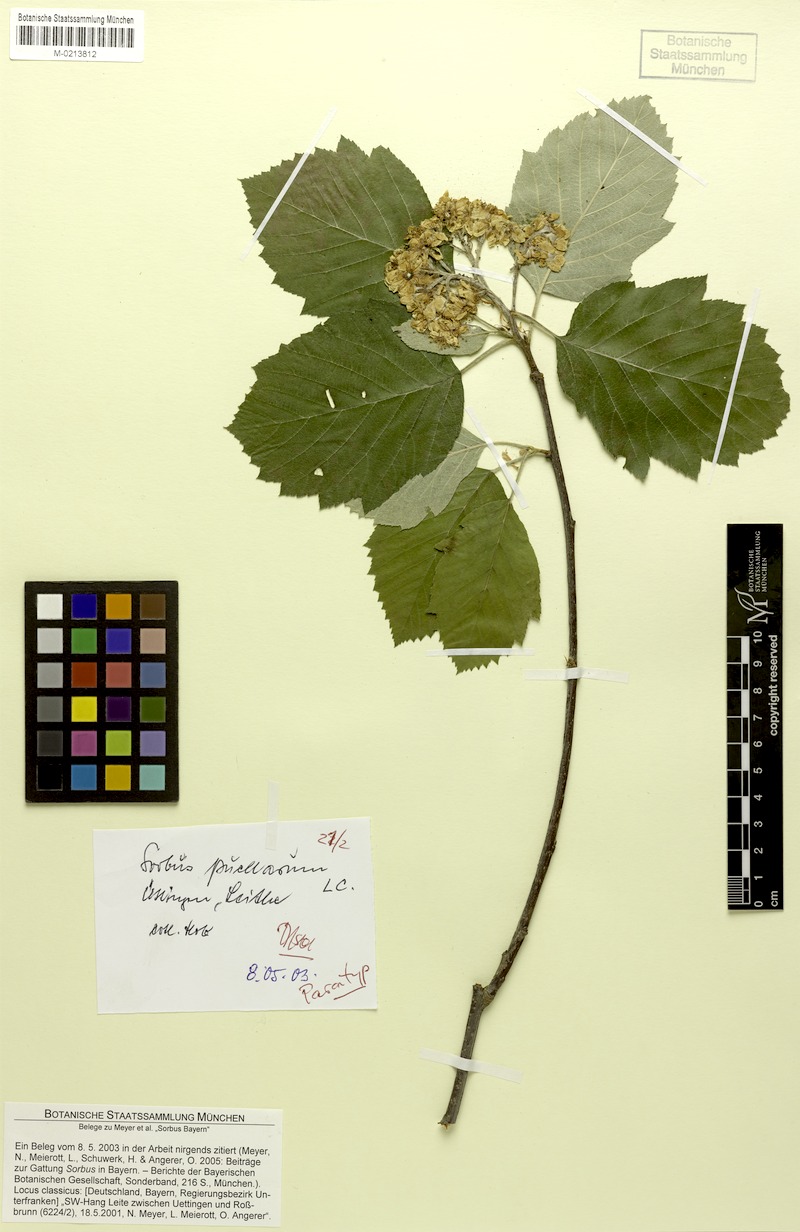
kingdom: Plantae
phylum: Tracheophyta
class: Magnoliopsida
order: Rosales
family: Rosaceae
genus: Karpatiosorbus
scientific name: Karpatiosorbus puellarum
